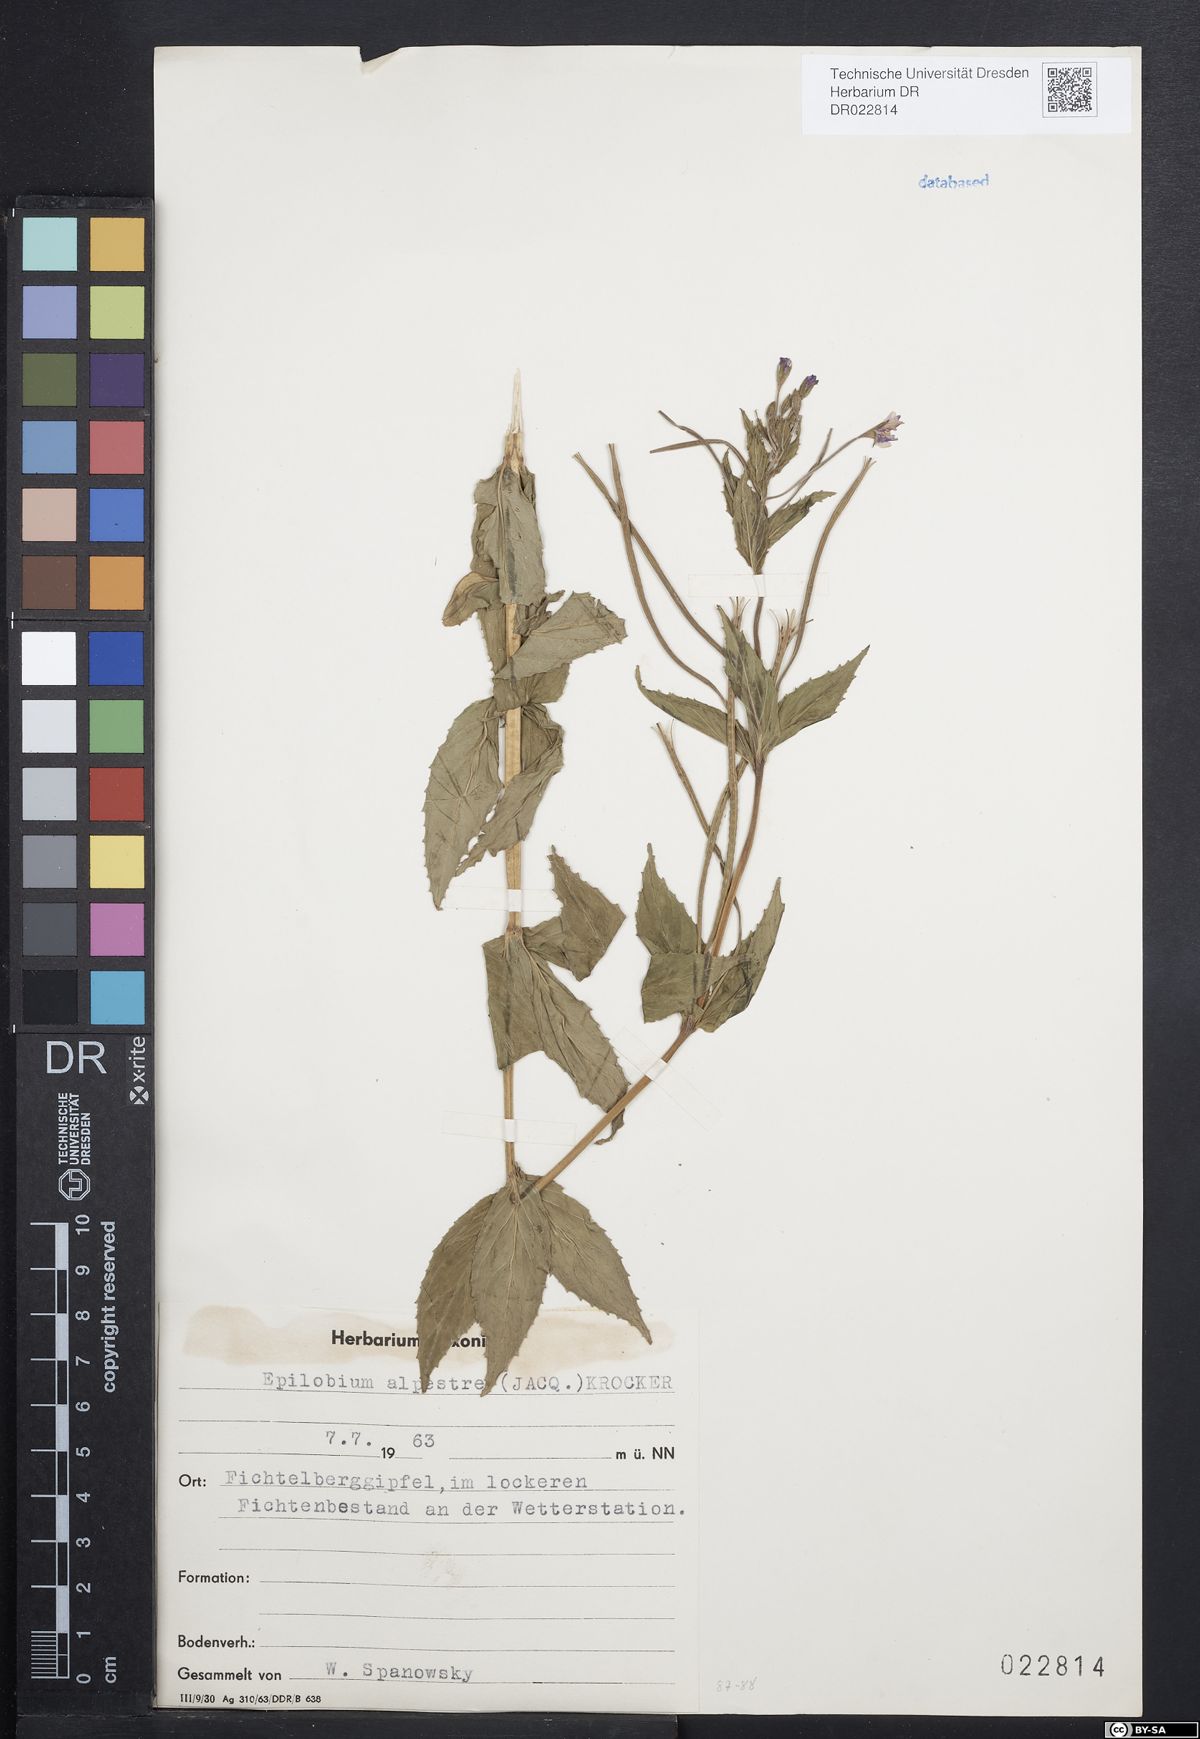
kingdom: Plantae
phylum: Tracheophyta
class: Magnoliopsida
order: Myrtales
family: Onagraceae
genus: Epilobium
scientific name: Epilobium alpestre
